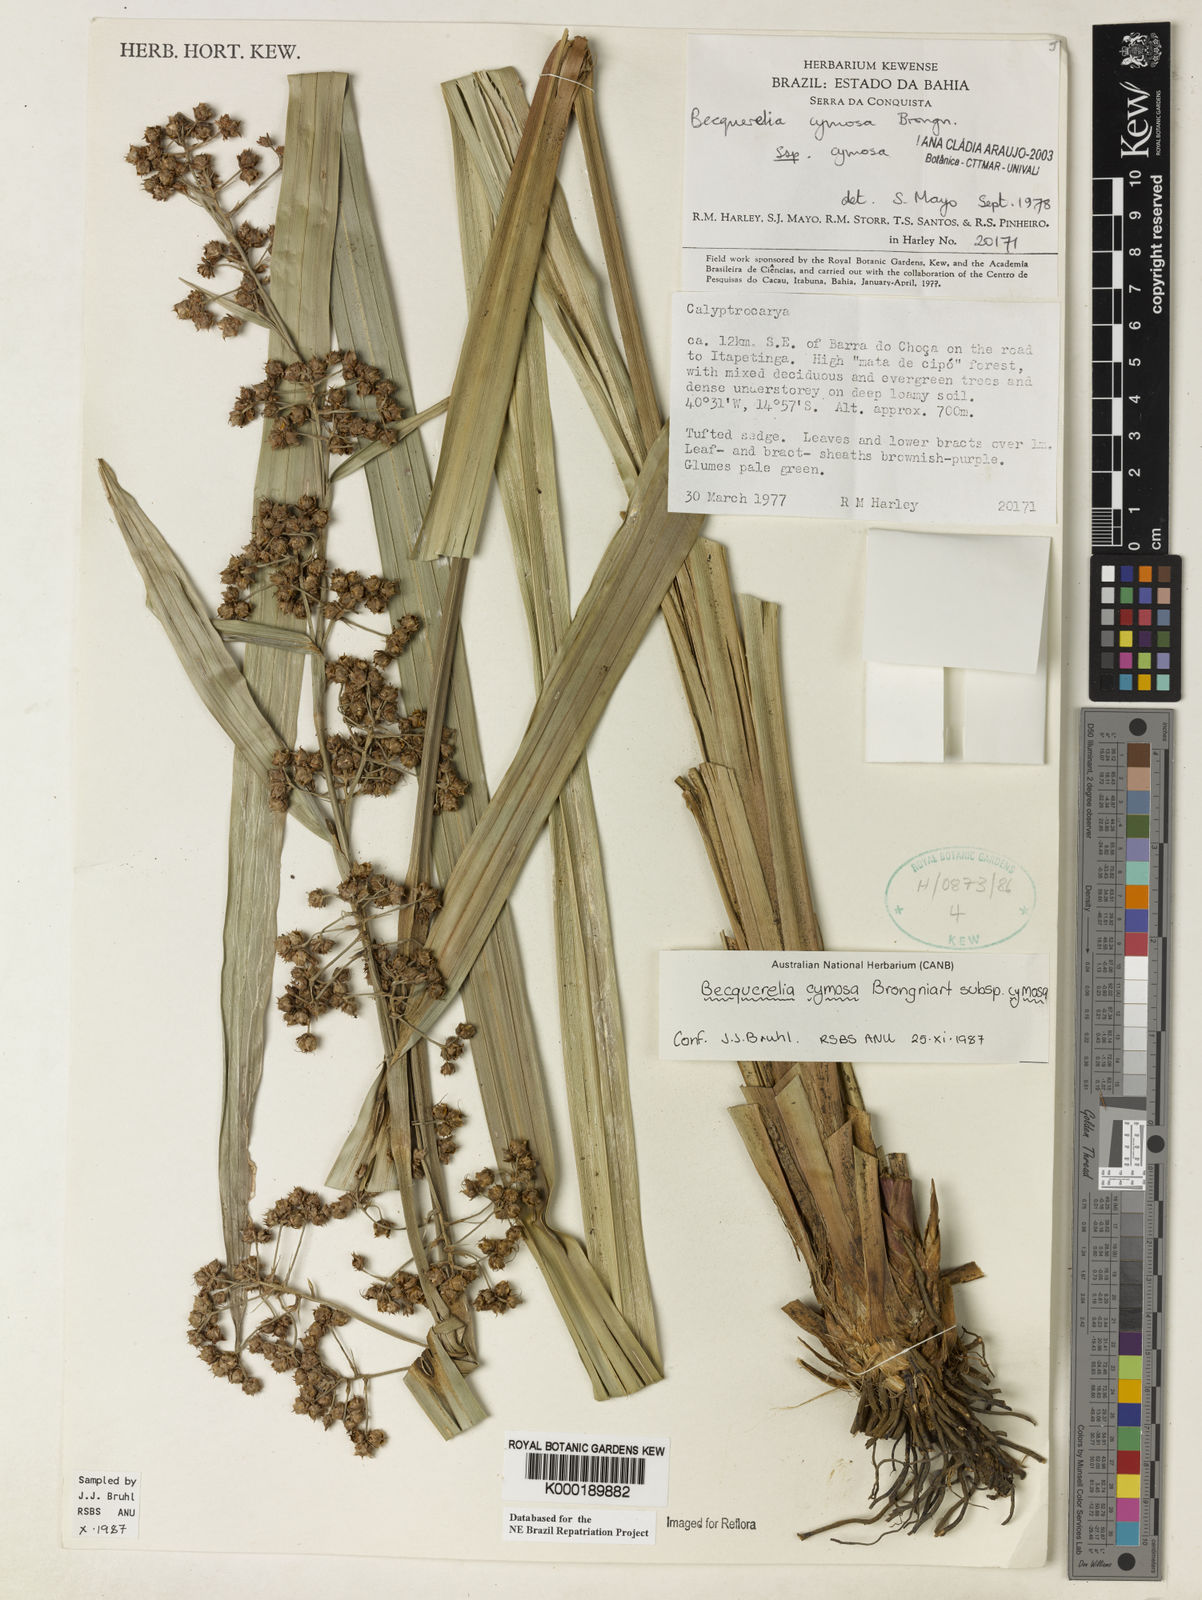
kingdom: Plantae
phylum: Tracheophyta
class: Liliopsida
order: Poales
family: Cyperaceae
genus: Becquerelia
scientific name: Becquerelia cymosa
